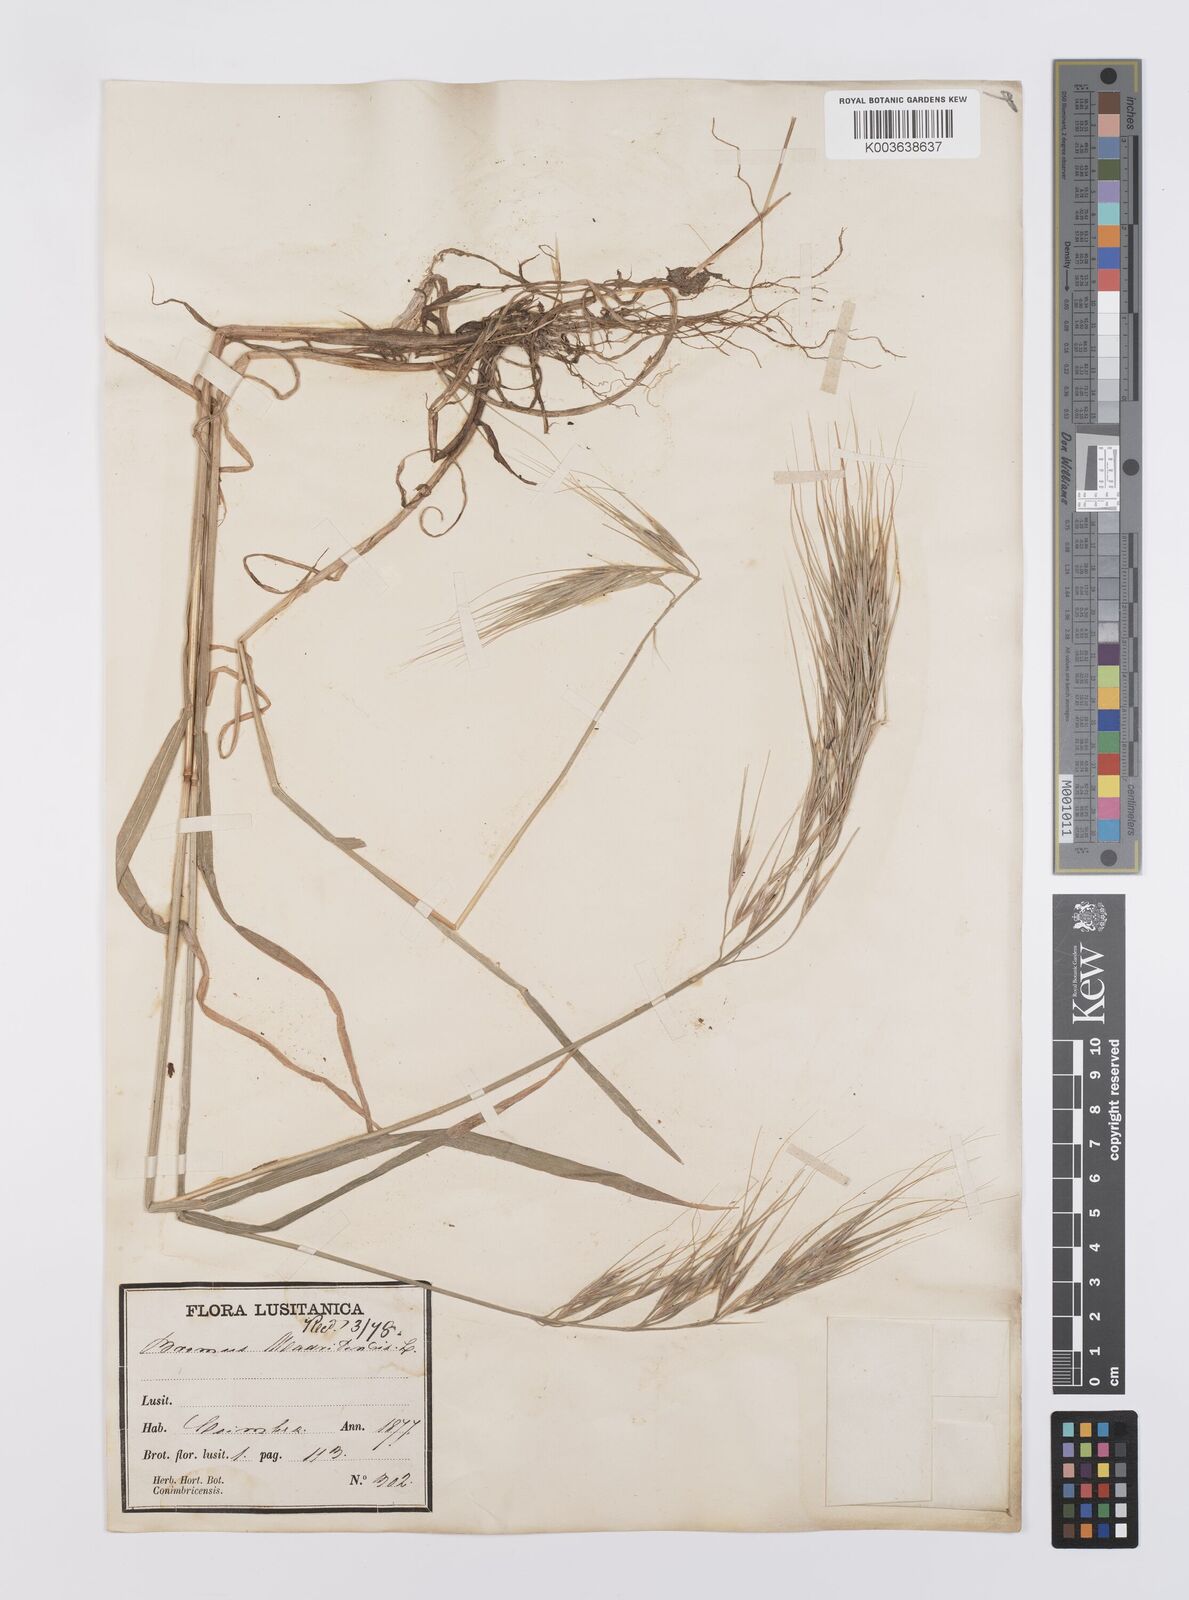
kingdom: Plantae
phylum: Tracheophyta
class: Liliopsida
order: Poales
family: Poaceae
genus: Bromus
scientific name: Bromus madritensis
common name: Compact brome
